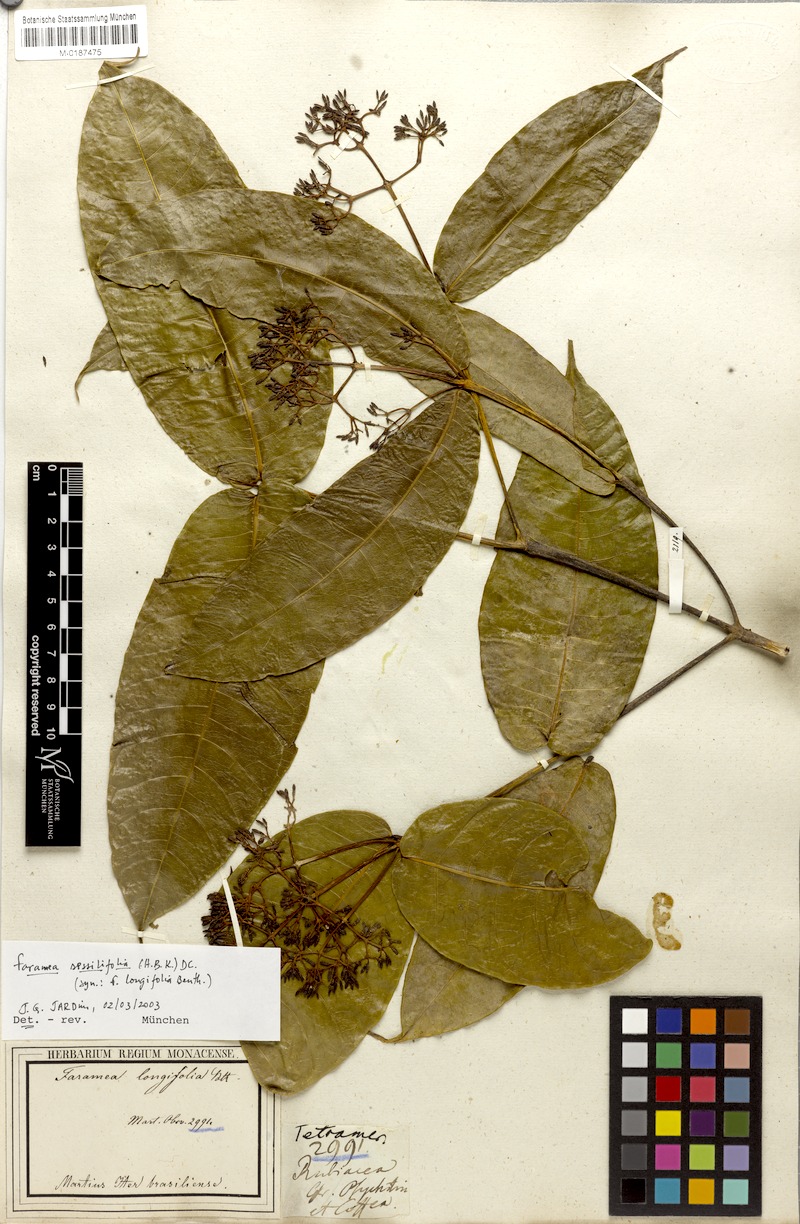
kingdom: Plantae
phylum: Tracheophyta
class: Magnoliopsida
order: Gentianales
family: Rubiaceae
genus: Faramea
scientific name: Faramea sessilifolia
